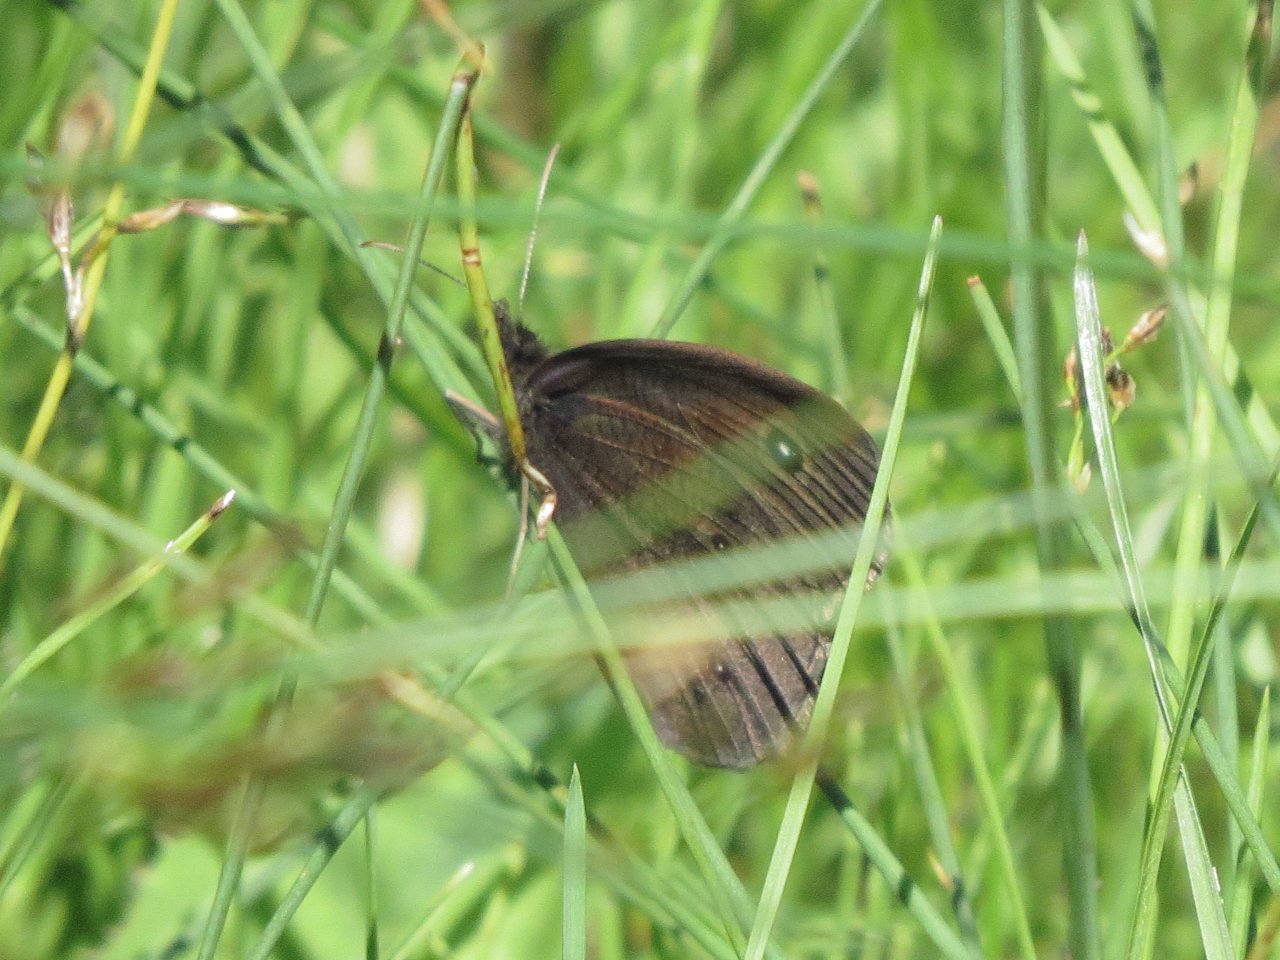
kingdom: Animalia
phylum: Arthropoda
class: Insecta
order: Lepidoptera
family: Nymphalidae
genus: Cercyonis
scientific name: Cercyonis pegala
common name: Common Wood-Nymph
